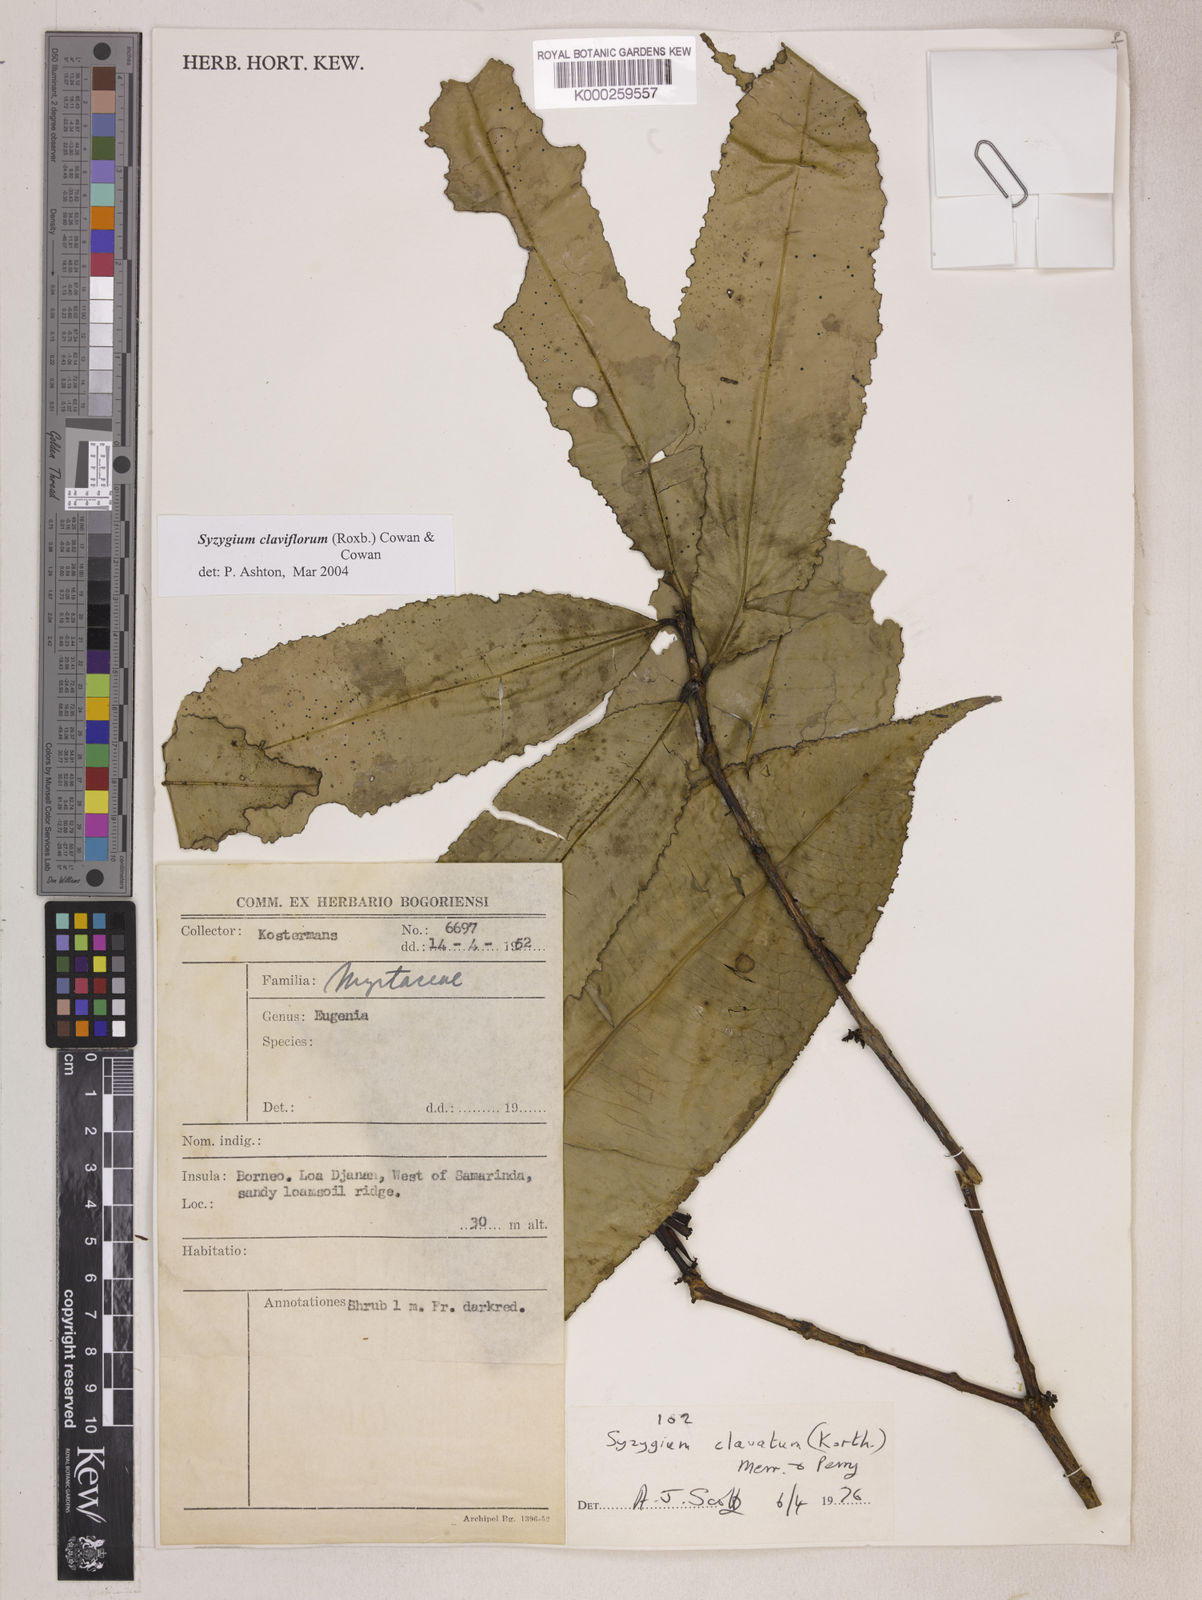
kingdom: Plantae
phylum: Tracheophyta
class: Magnoliopsida
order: Myrtales
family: Myrtaceae
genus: Syzygium
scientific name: Syzygium claviflorum
